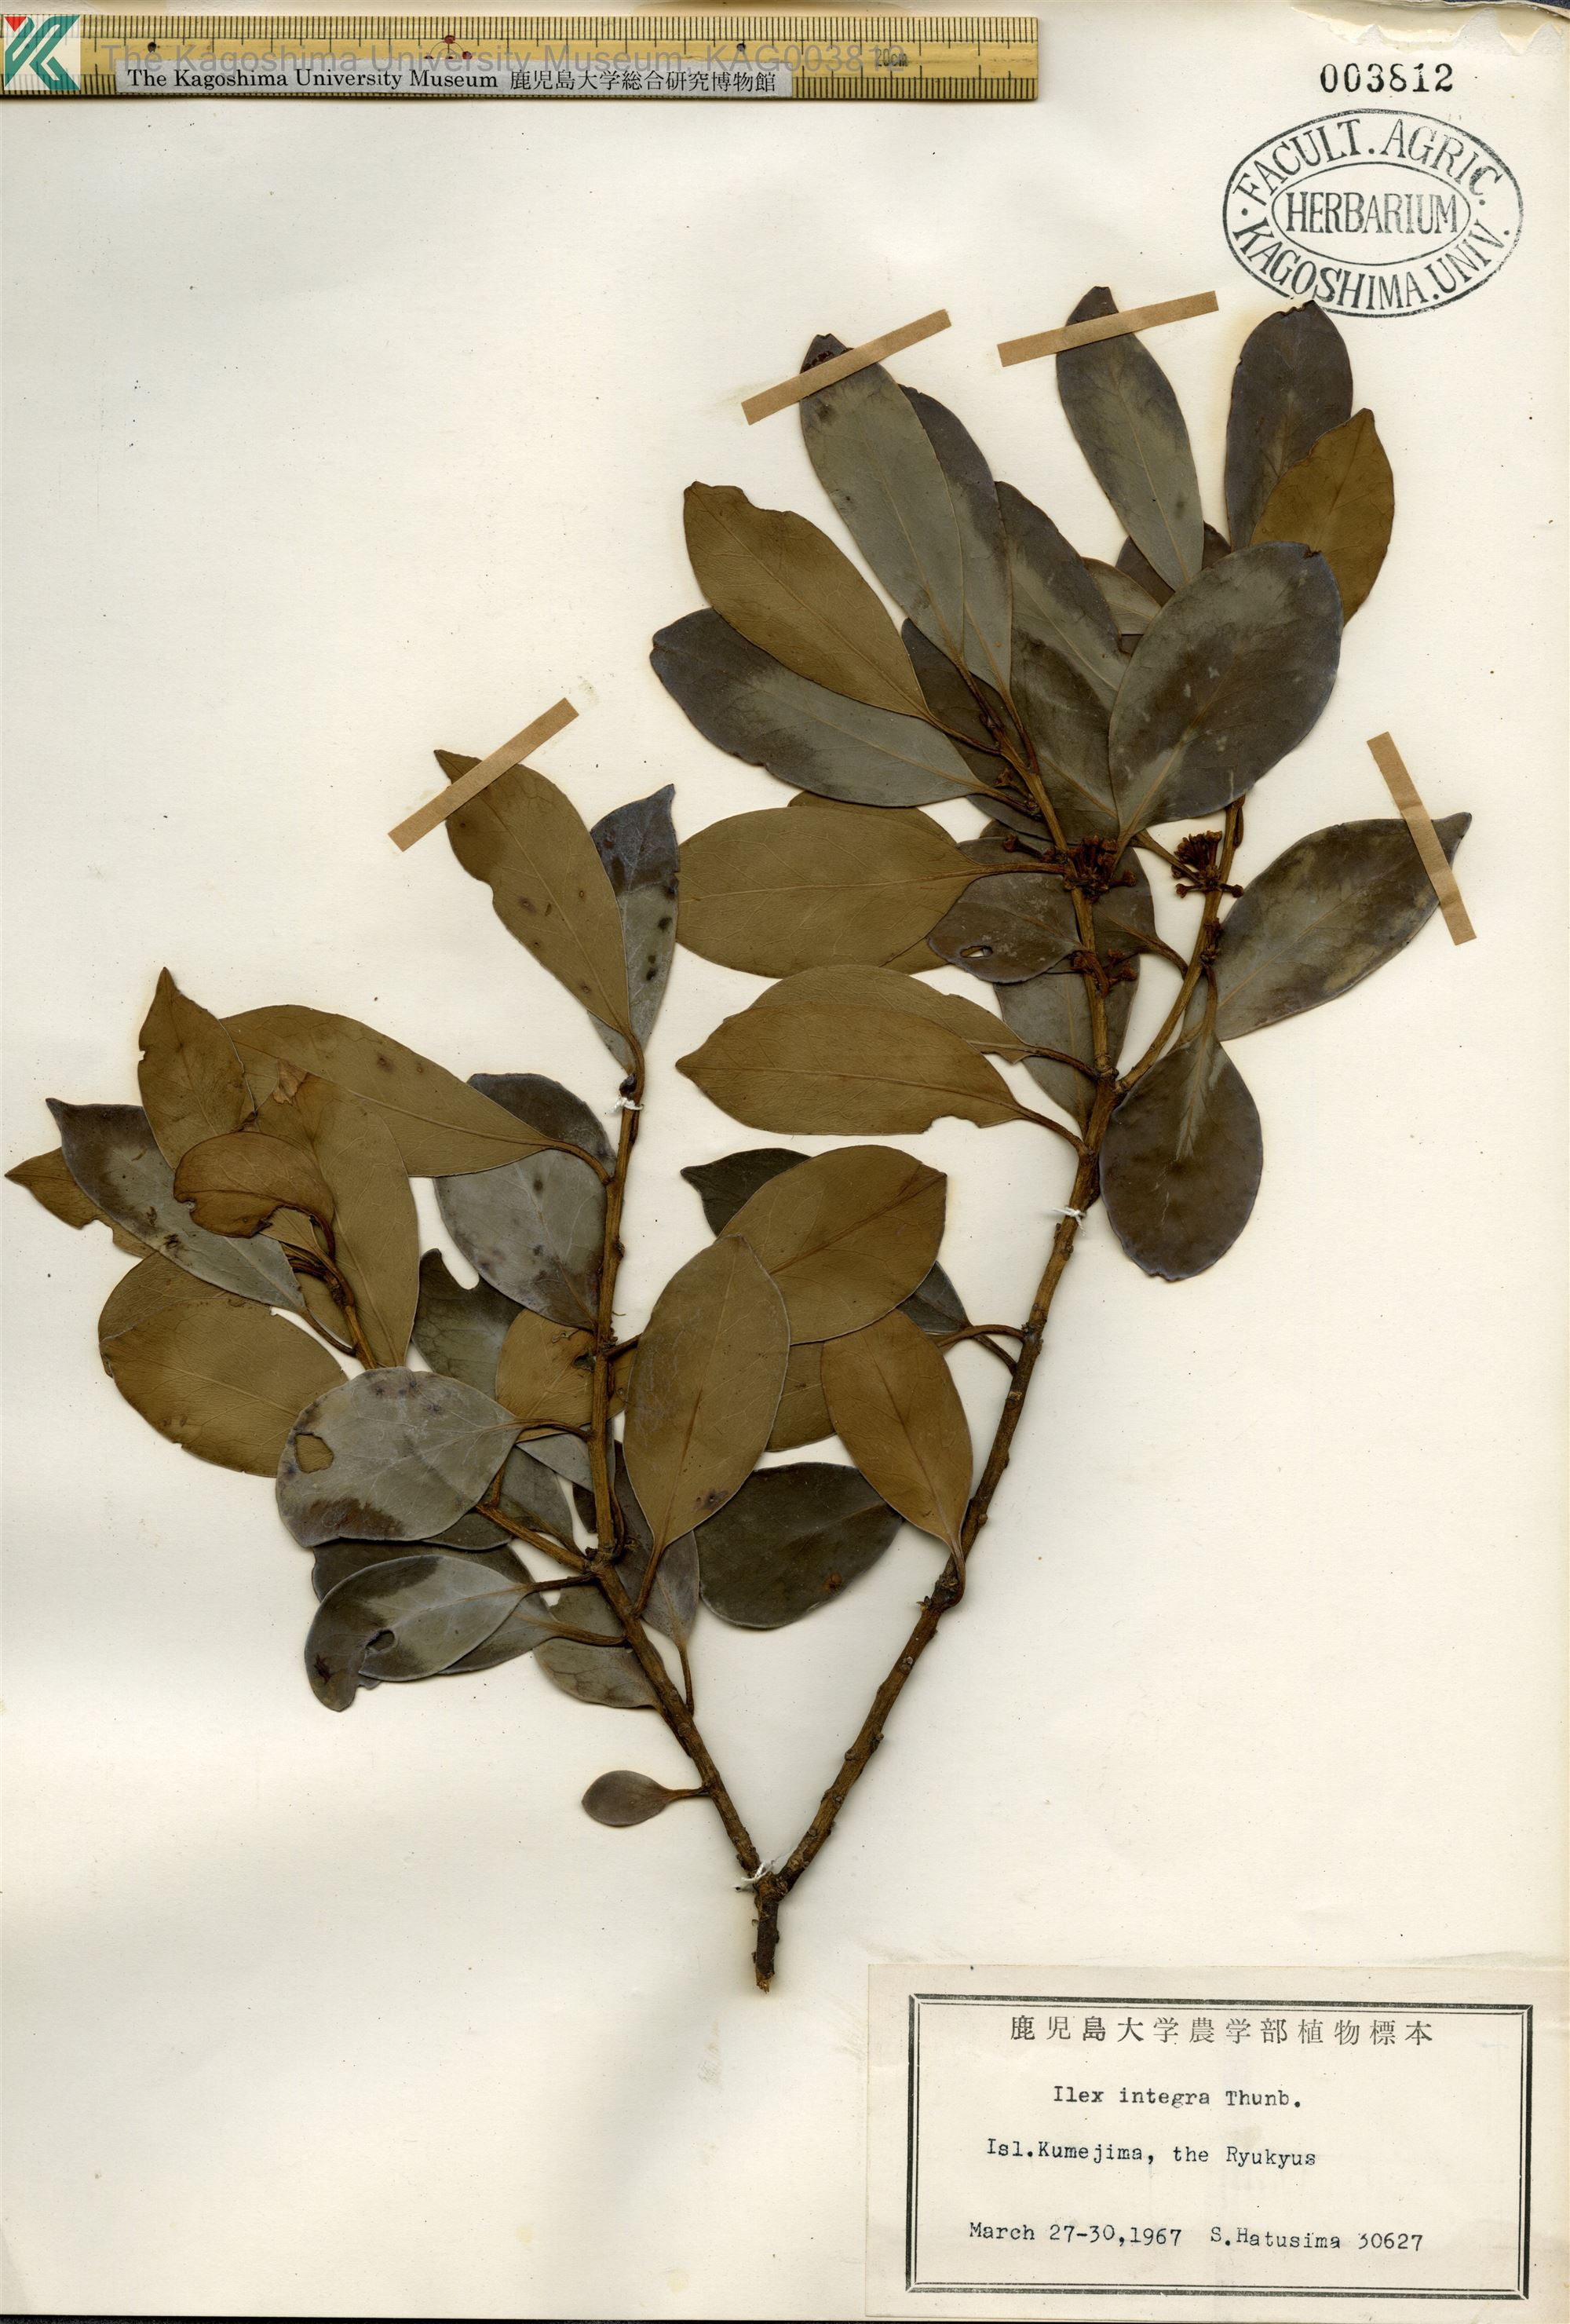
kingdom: Plantae
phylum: Tracheophyta
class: Magnoliopsida
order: Aquifoliales
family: Aquifoliaceae
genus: Ilex
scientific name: Ilex integra
